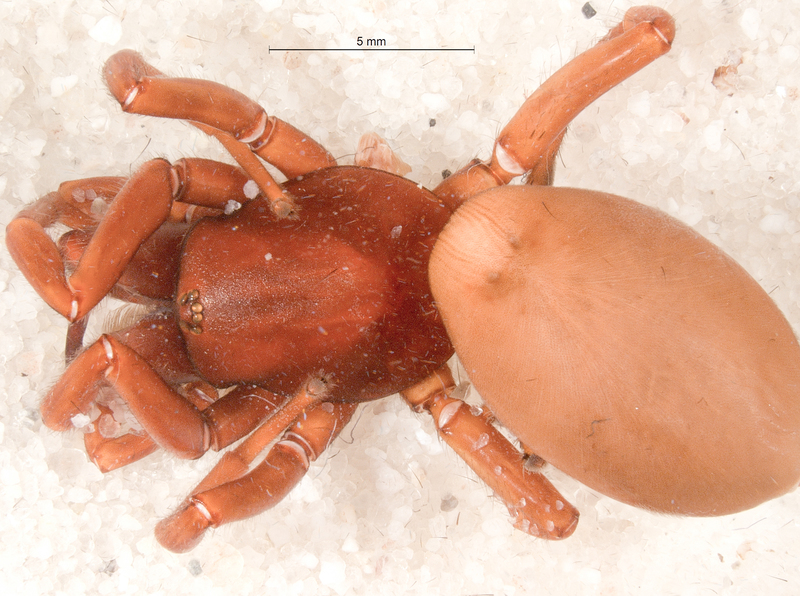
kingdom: Animalia
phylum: Arthropoda
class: Arachnida
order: Araneae
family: Dysderidae
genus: Dysdera
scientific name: Dysdera crocata
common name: Woodlouse spider
